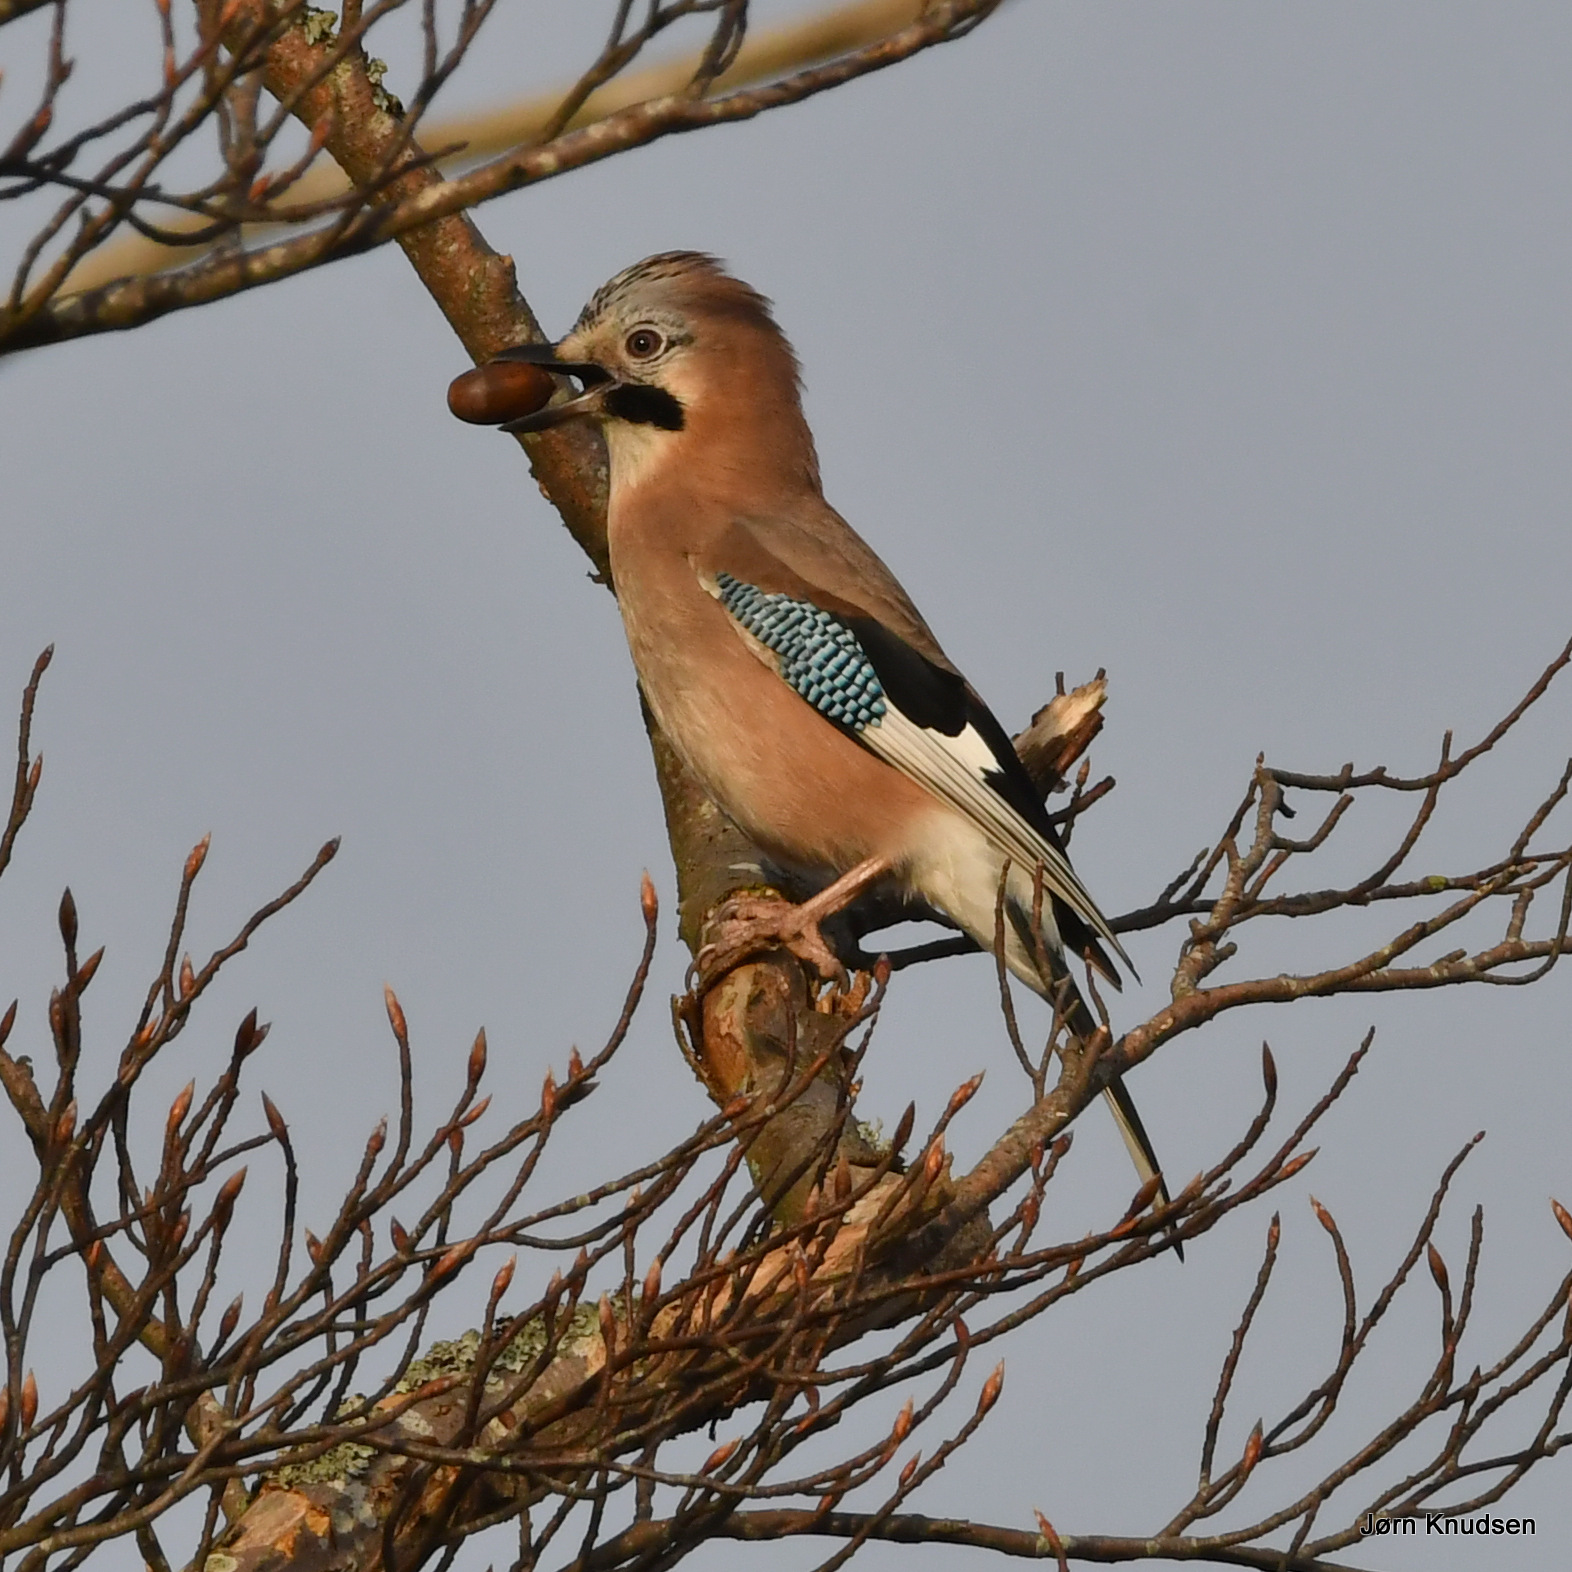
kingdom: Animalia
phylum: Chordata
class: Aves
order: Passeriformes
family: Corvidae
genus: Garrulus
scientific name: Garrulus glandarius
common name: Skovskade
